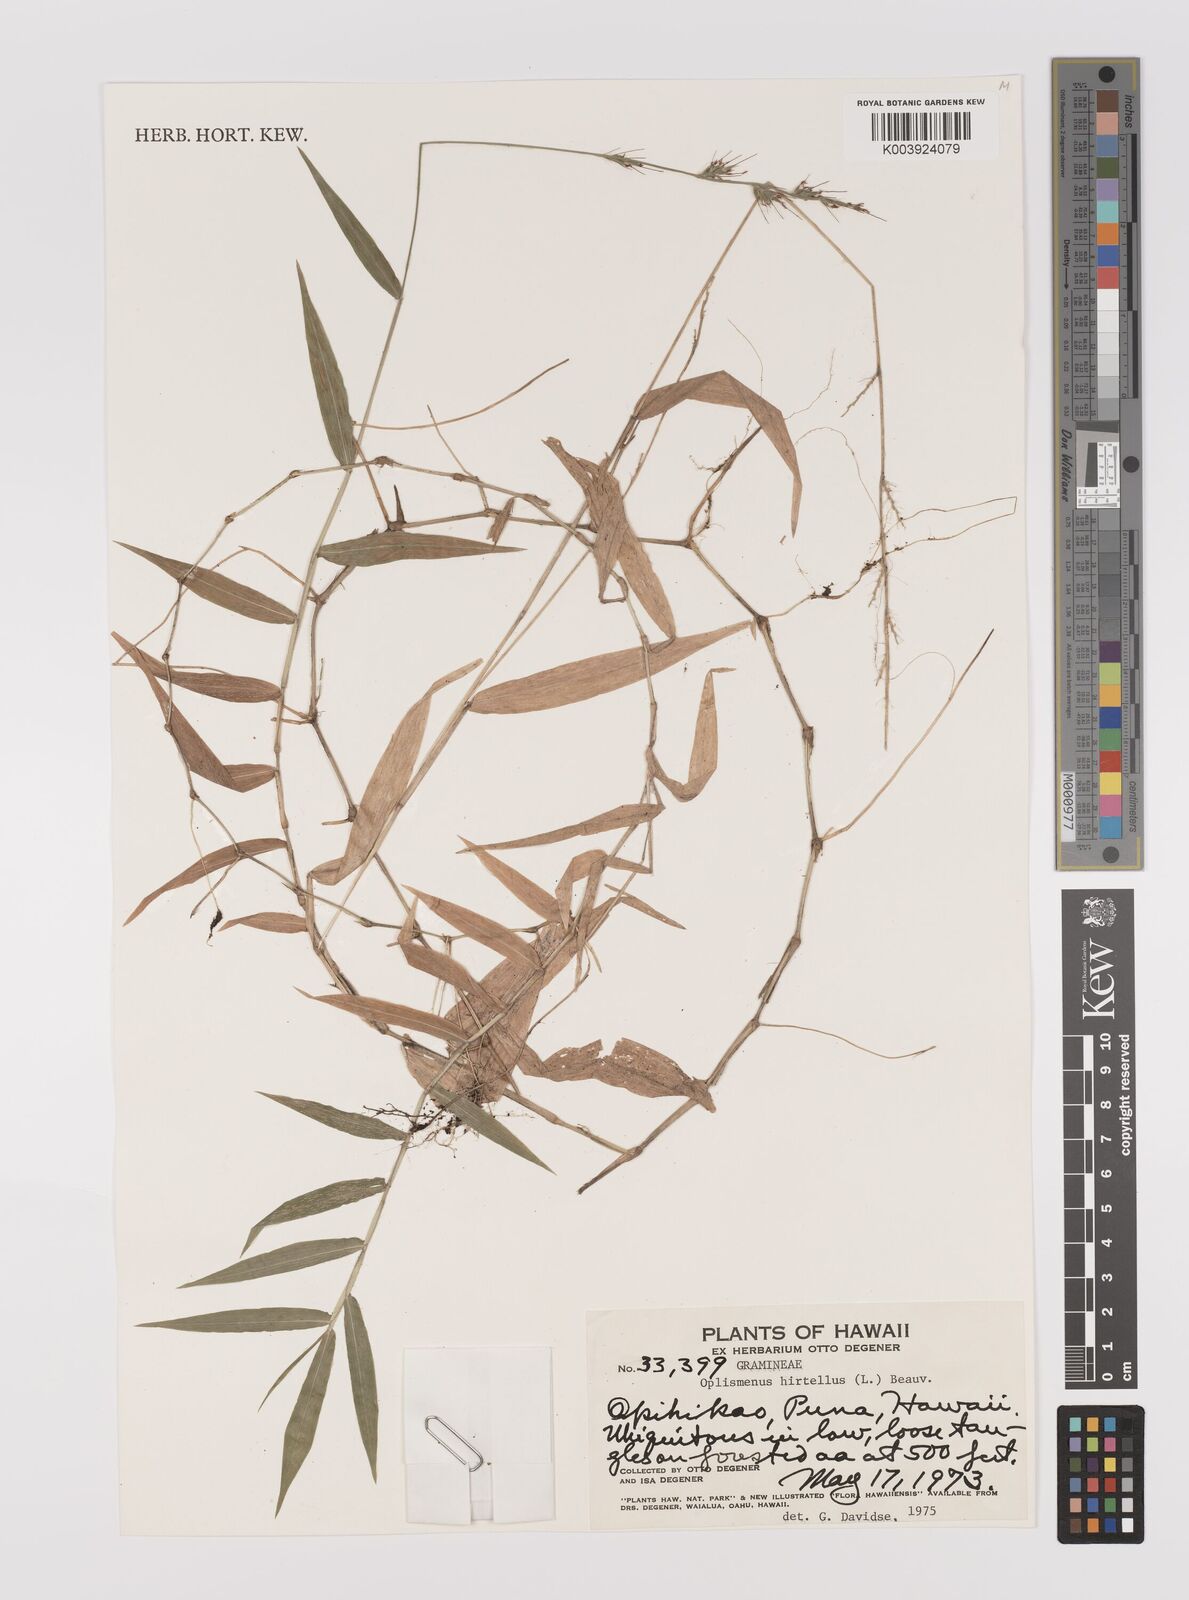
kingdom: Plantae
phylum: Tracheophyta
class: Liliopsida
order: Poales
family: Poaceae
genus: Oplismenus
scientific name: Oplismenus hirtellus
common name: Basketgrass
